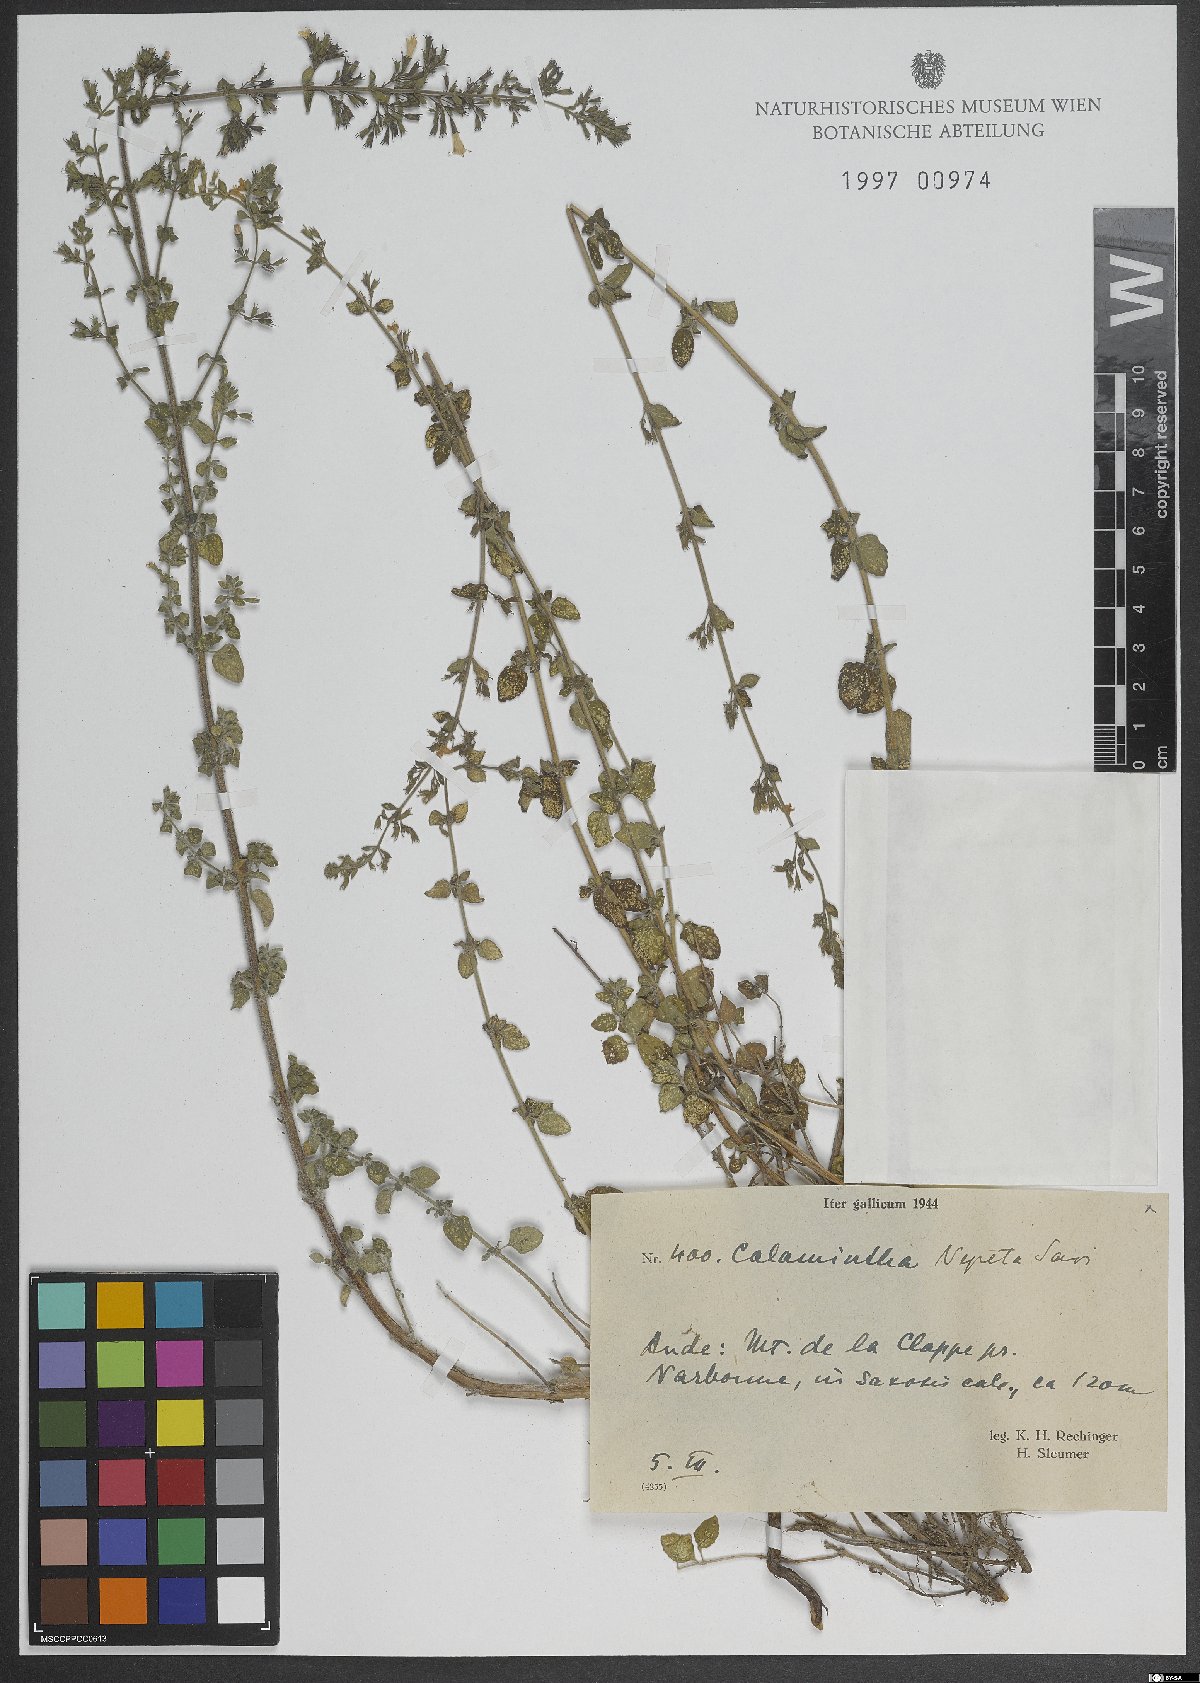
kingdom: Plantae
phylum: Tracheophyta
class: Magnoliopsida
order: Lamiales
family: Lamiaceae
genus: Clinopodium
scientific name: Clinopodium nepeta
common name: Lesser calamint
